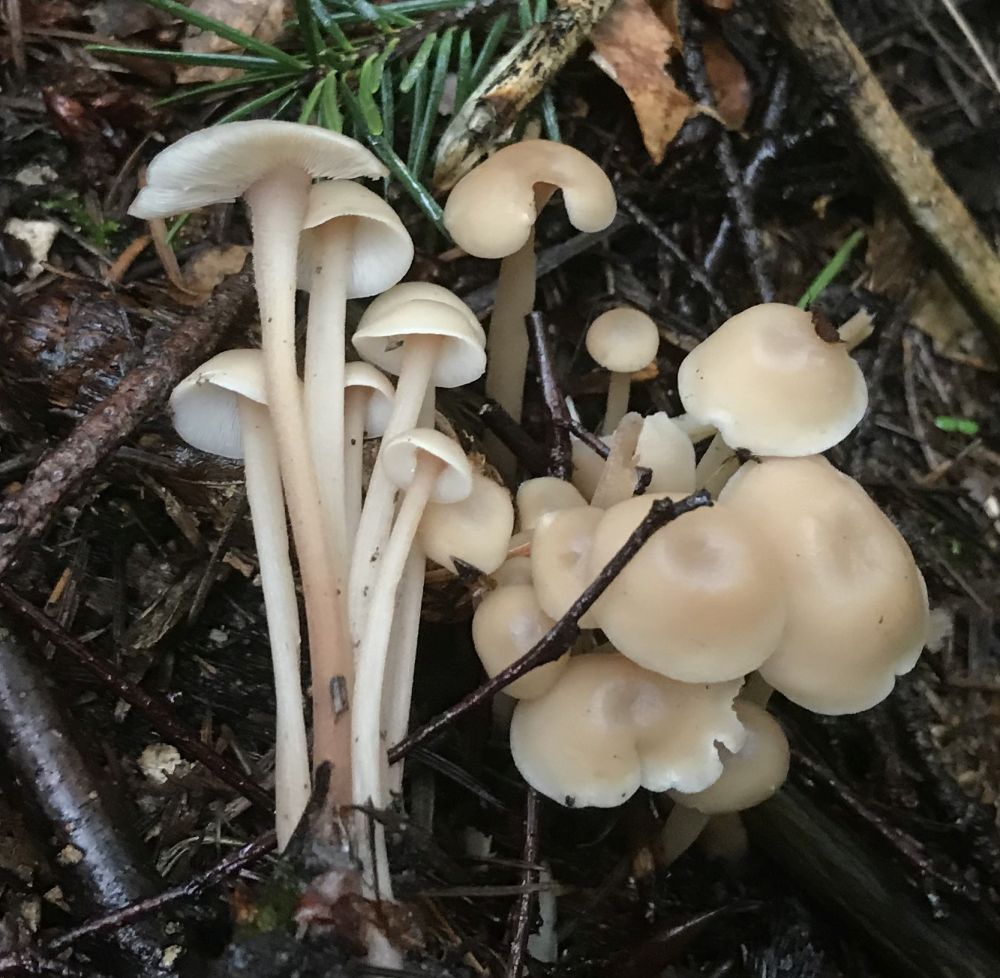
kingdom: Fungi
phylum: Basidiomycota
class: Agaricomycetes
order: Agaricales
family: Omphalotaceae
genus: Collybiopsis
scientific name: Collybiopsis confluens
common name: knippe-fladhat
